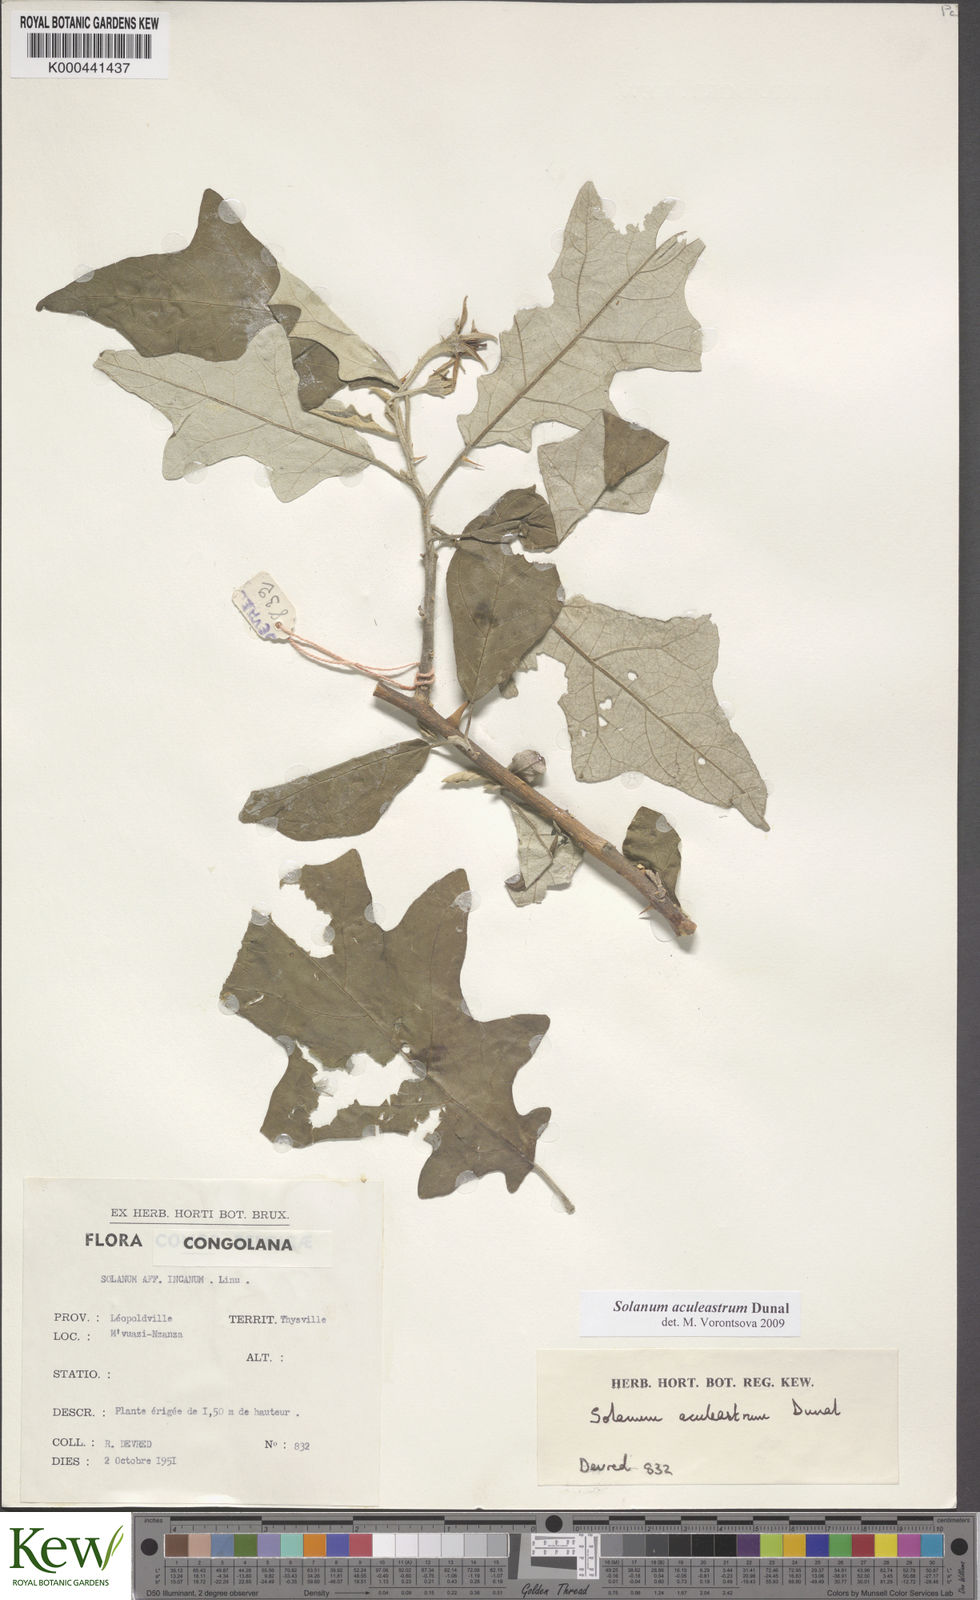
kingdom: Plantae
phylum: Tracheophyta
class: Magnoliopsida
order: Solanales
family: Solanaceae
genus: Solanum
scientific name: Solanum aculeastrum
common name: Goat bitter-apple
